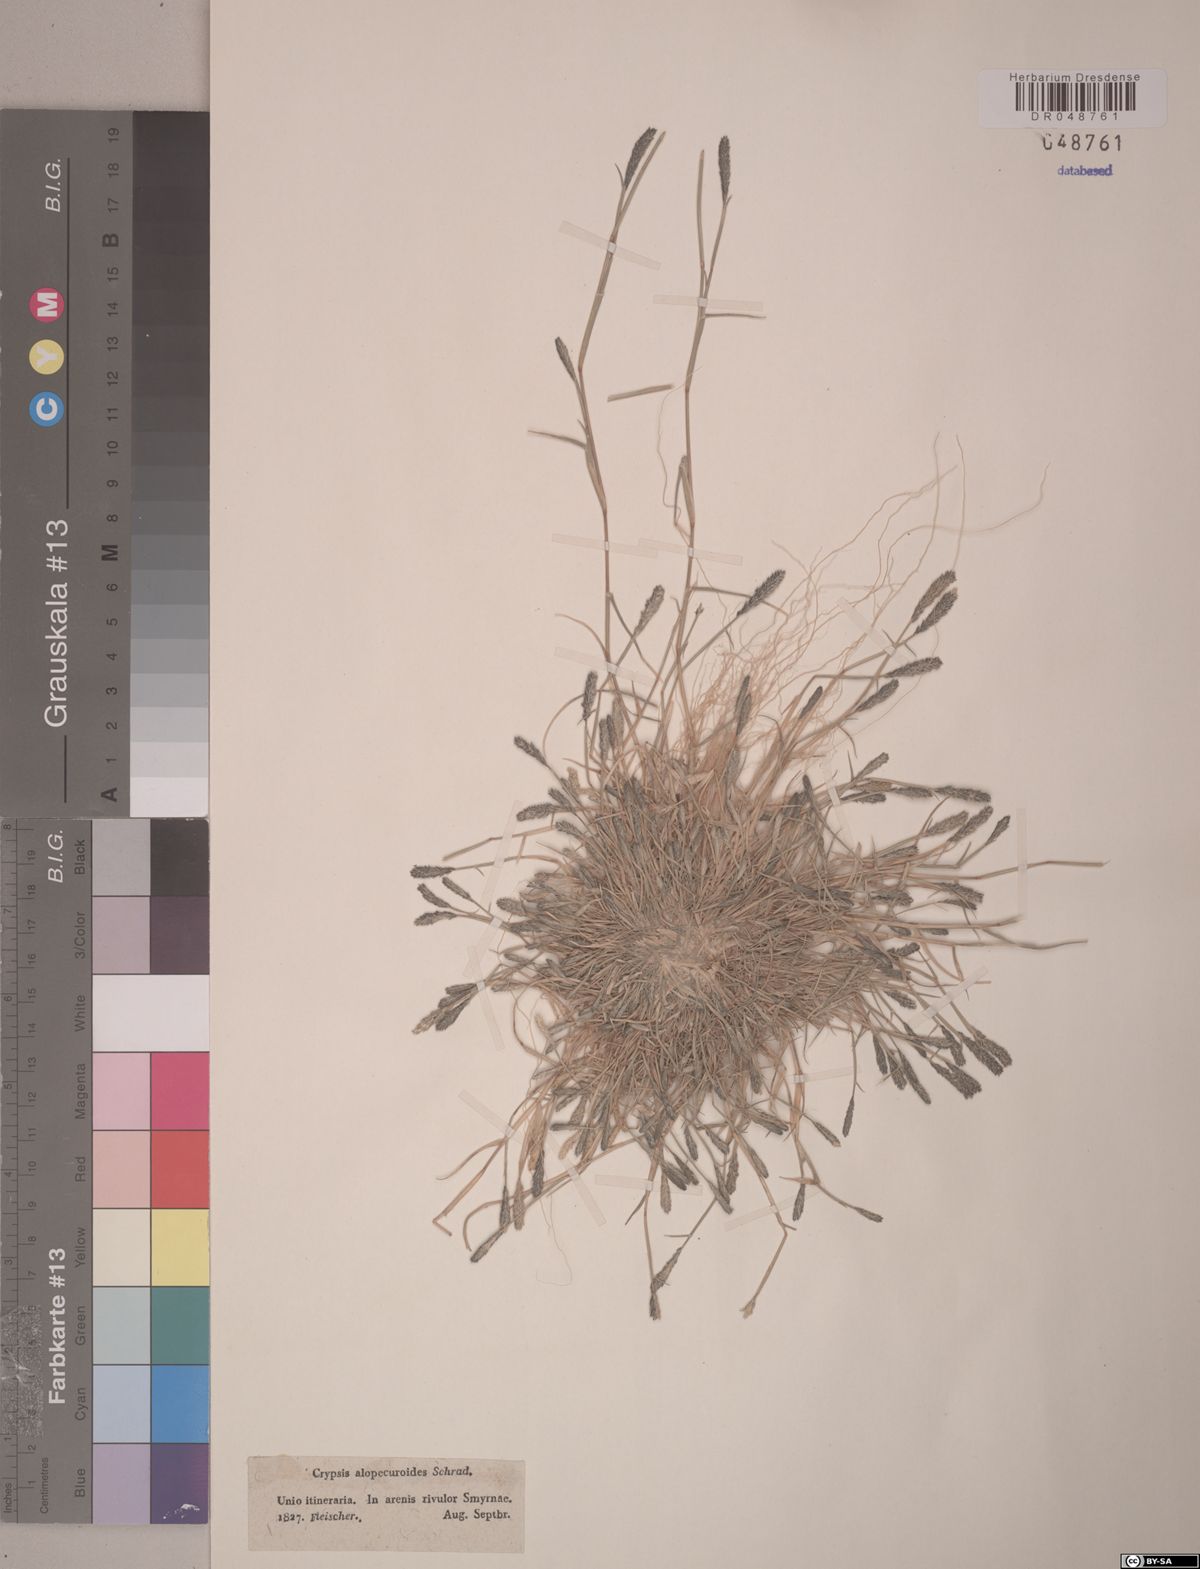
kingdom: Plantae
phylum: Tracheophyta
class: Liliopsida
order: Poales
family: Poaceae
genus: Sporobolus
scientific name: Sporobolus alopecuroides
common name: Foxtail pricklegrass
